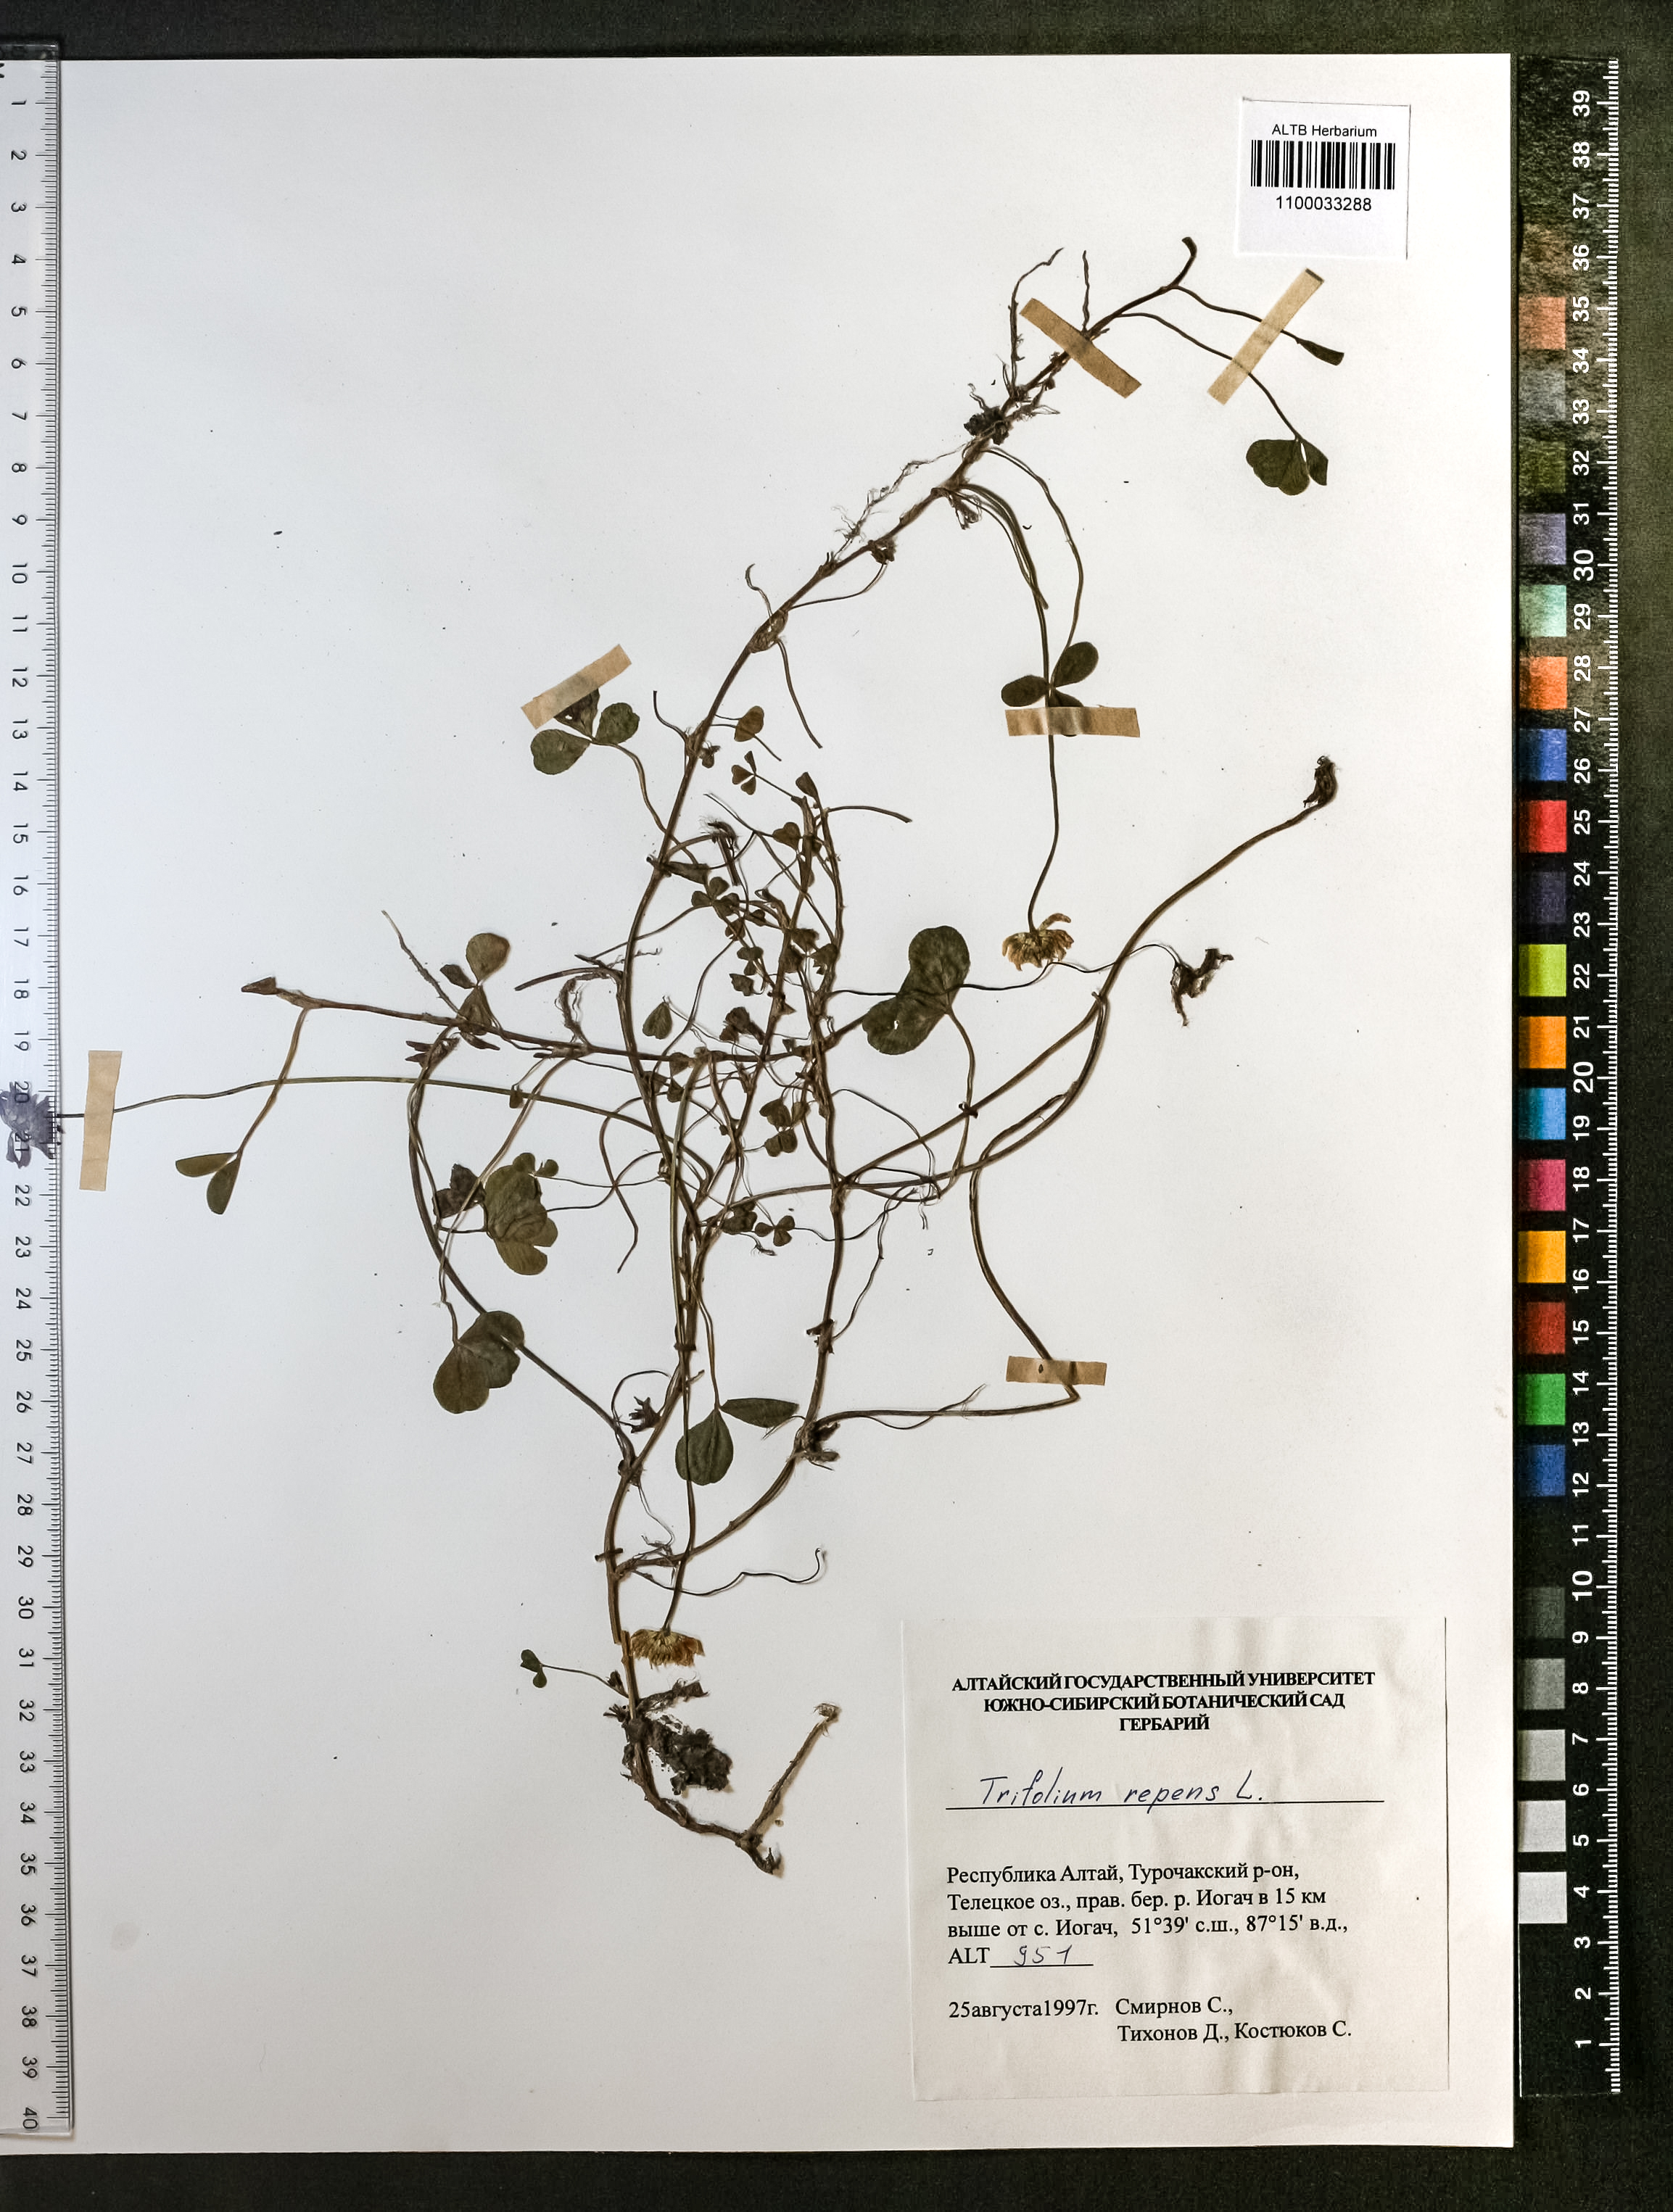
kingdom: Plantae
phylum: Tracheophyta
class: Magnoliopsida
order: Fabales
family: Fabaceae
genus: Trifolium
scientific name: Trifolium repens
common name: White clover
